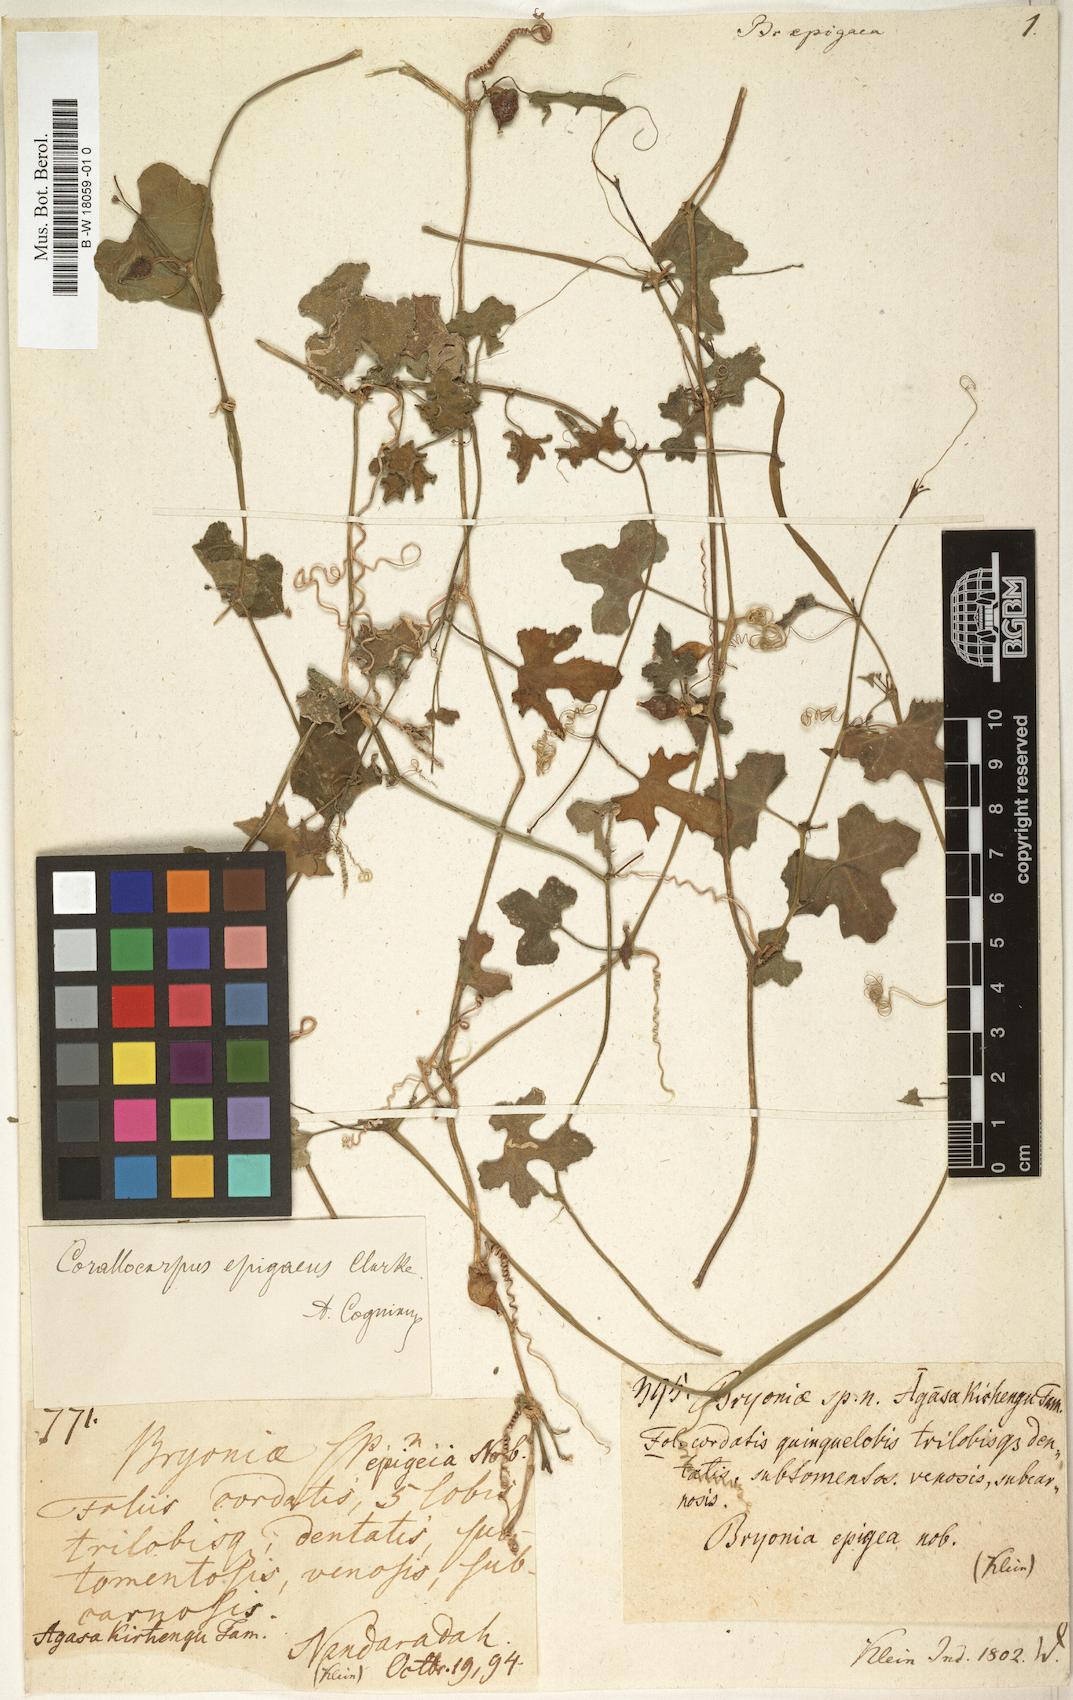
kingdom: Plantae
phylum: Tracheophyta
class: Magnoliopsida
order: Cucurbitales
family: Cucurbitaceae
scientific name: Cucurbitaceae
